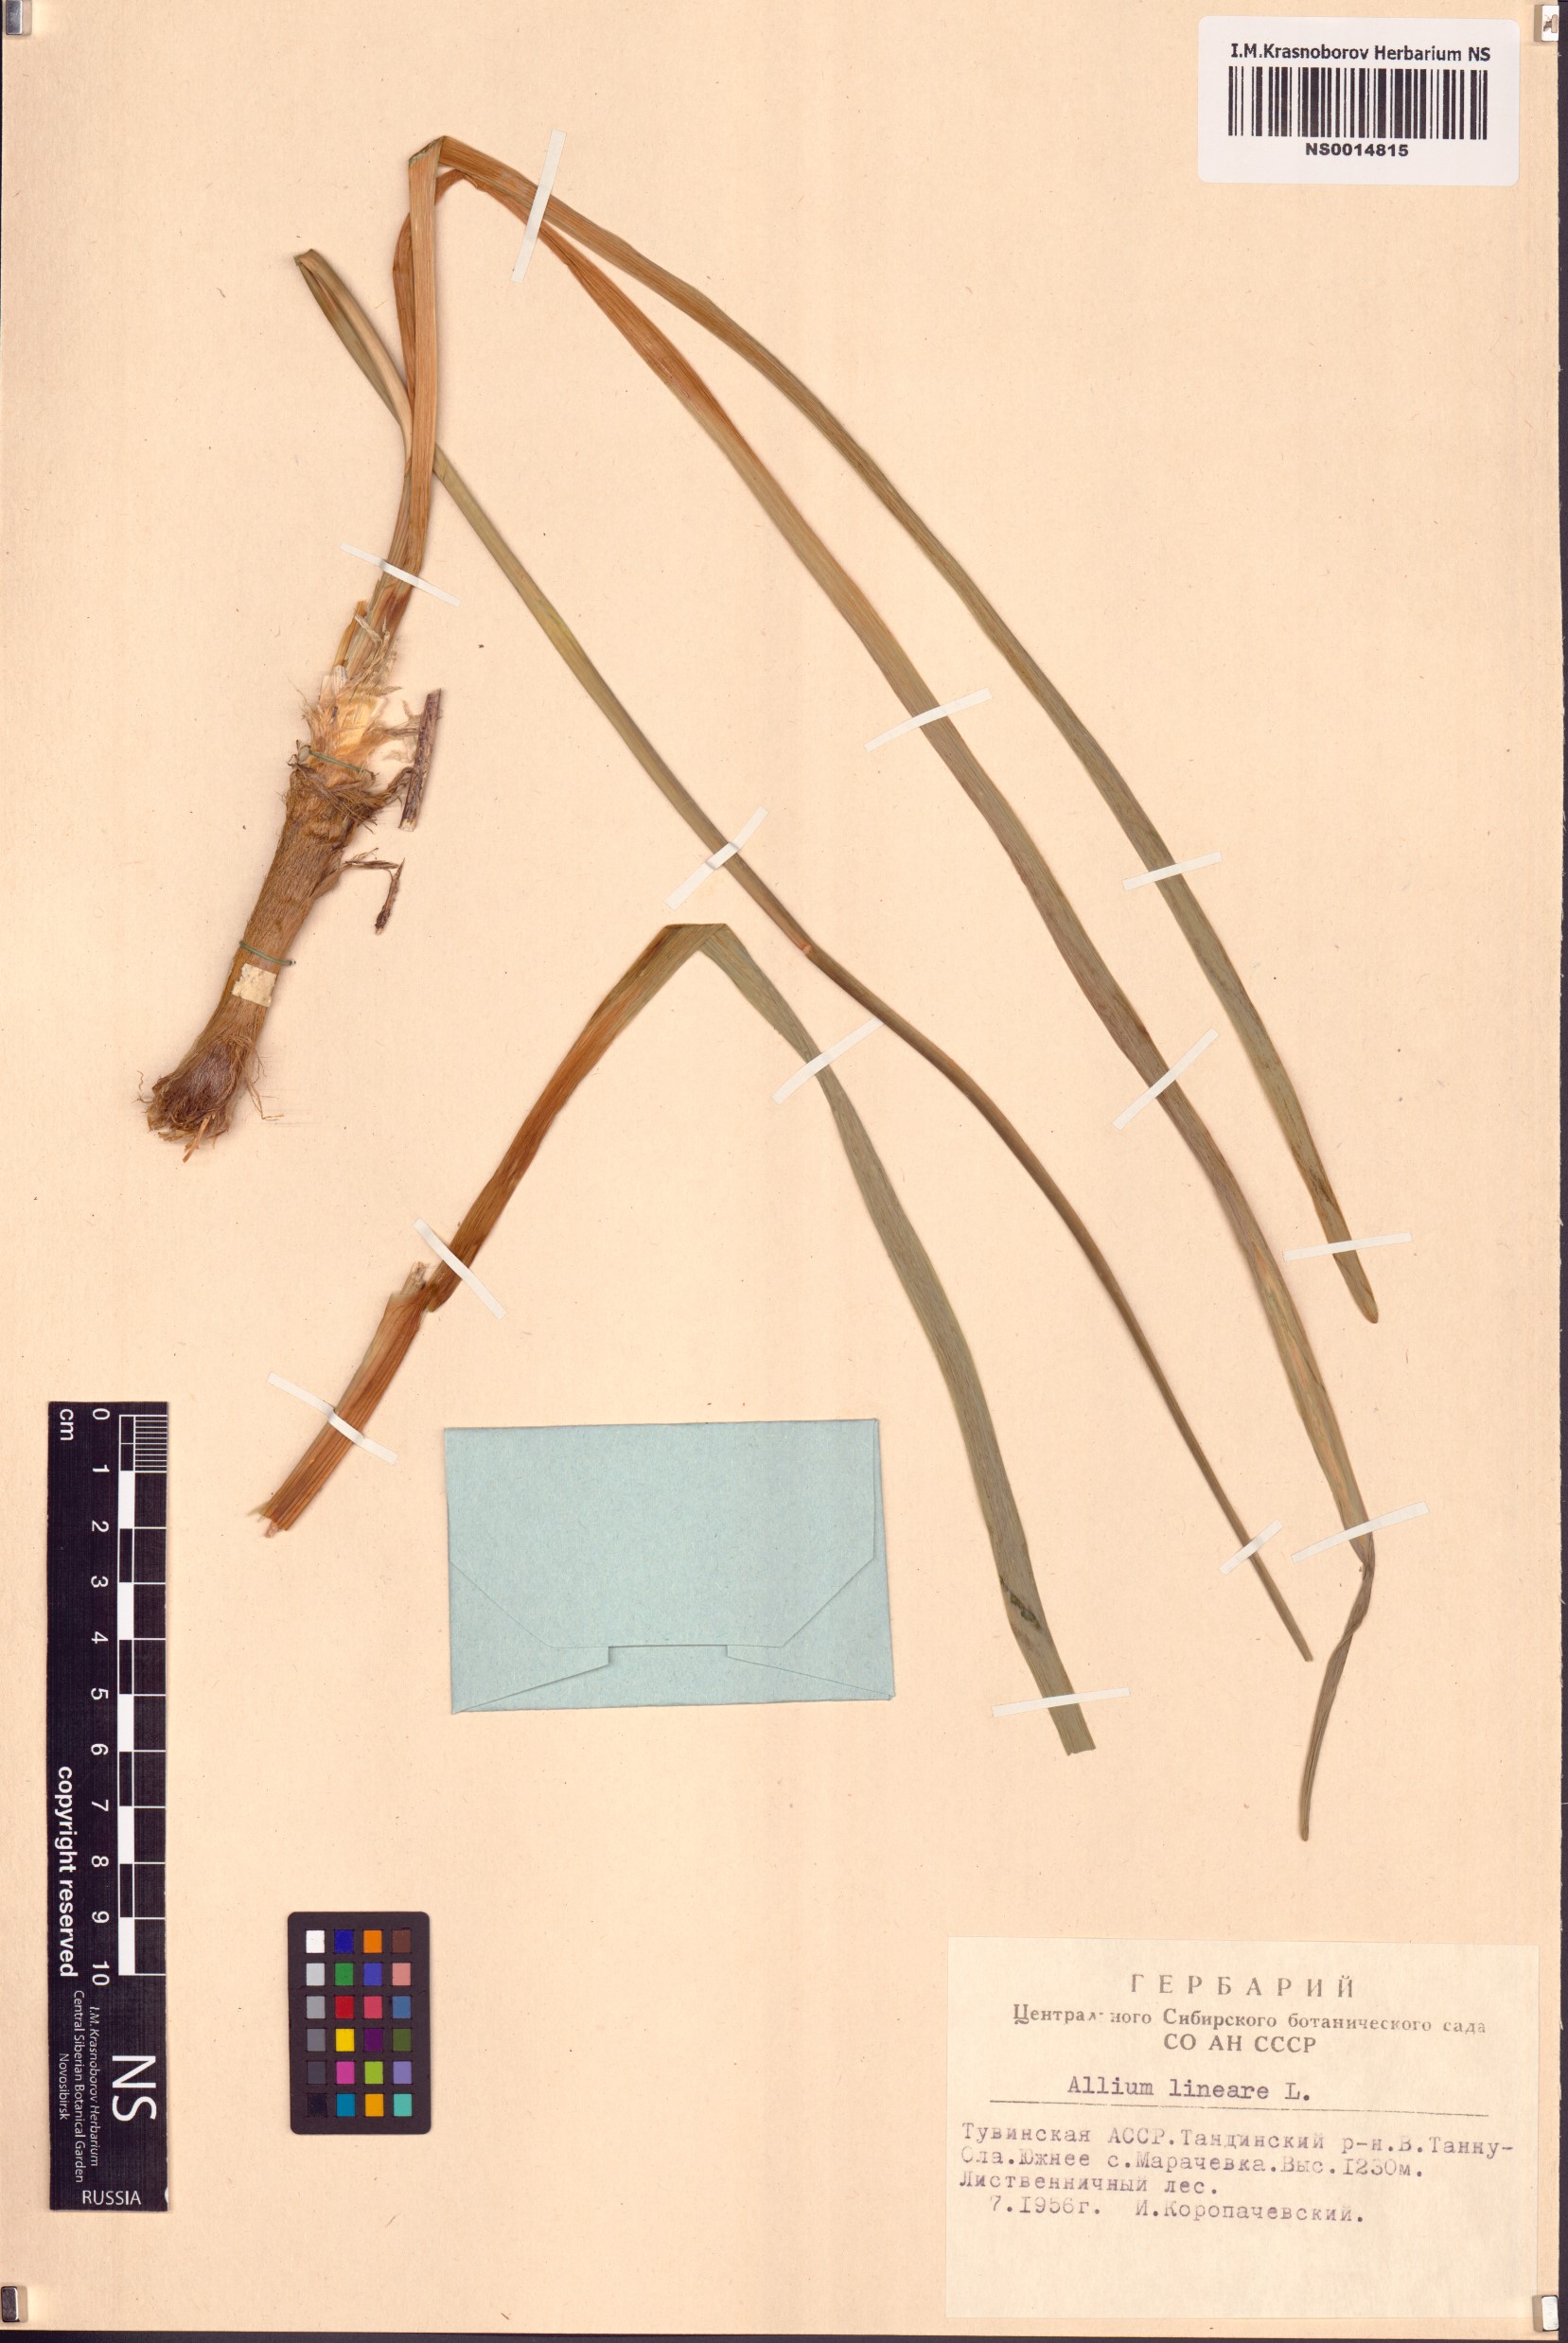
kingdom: Plantae
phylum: Tracheophyta
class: Liliopsida
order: Asparagales
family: Amaryllidaceae
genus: Allium
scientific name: Allium lineare
